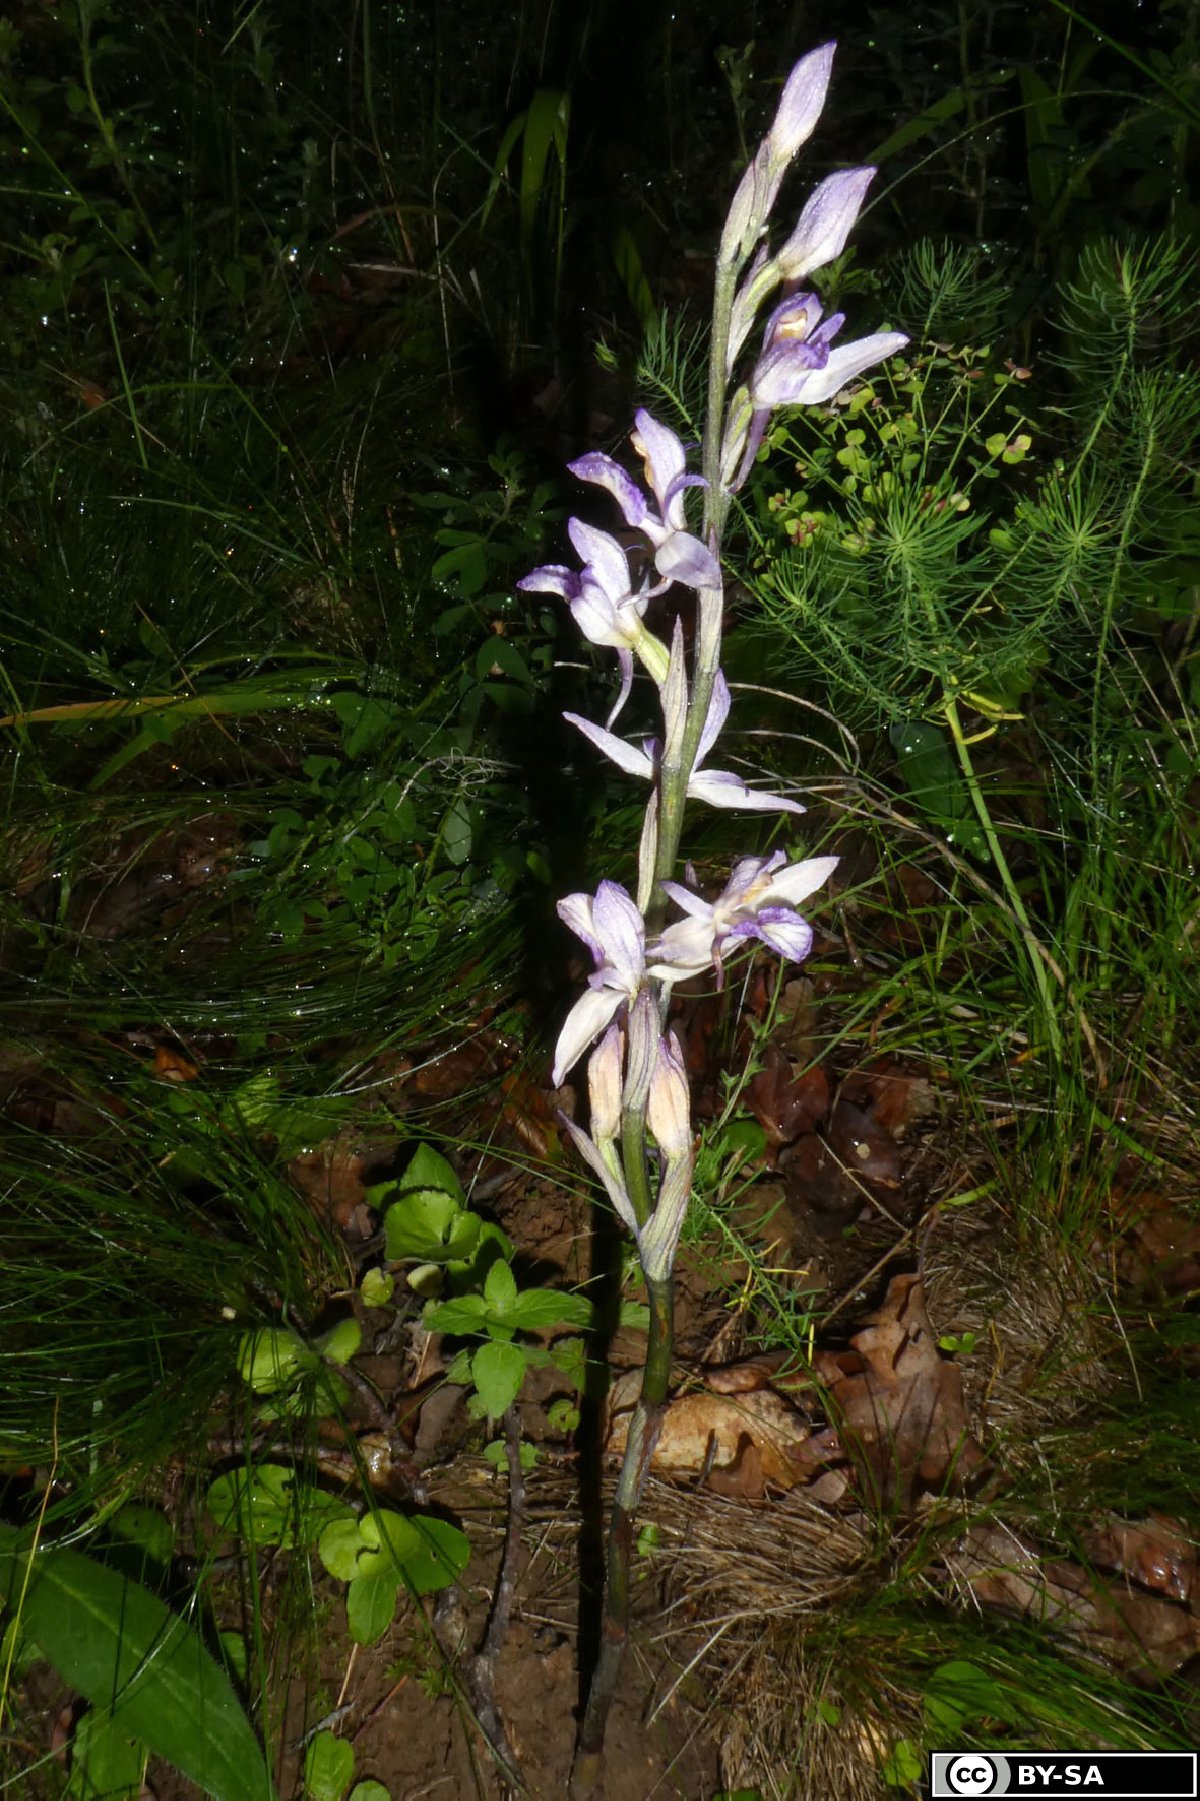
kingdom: Plantae
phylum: Tracheophyta
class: Liliopsida
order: Asparagales
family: Orchidaceae
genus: Limodorum
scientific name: Limodorum abortivum
